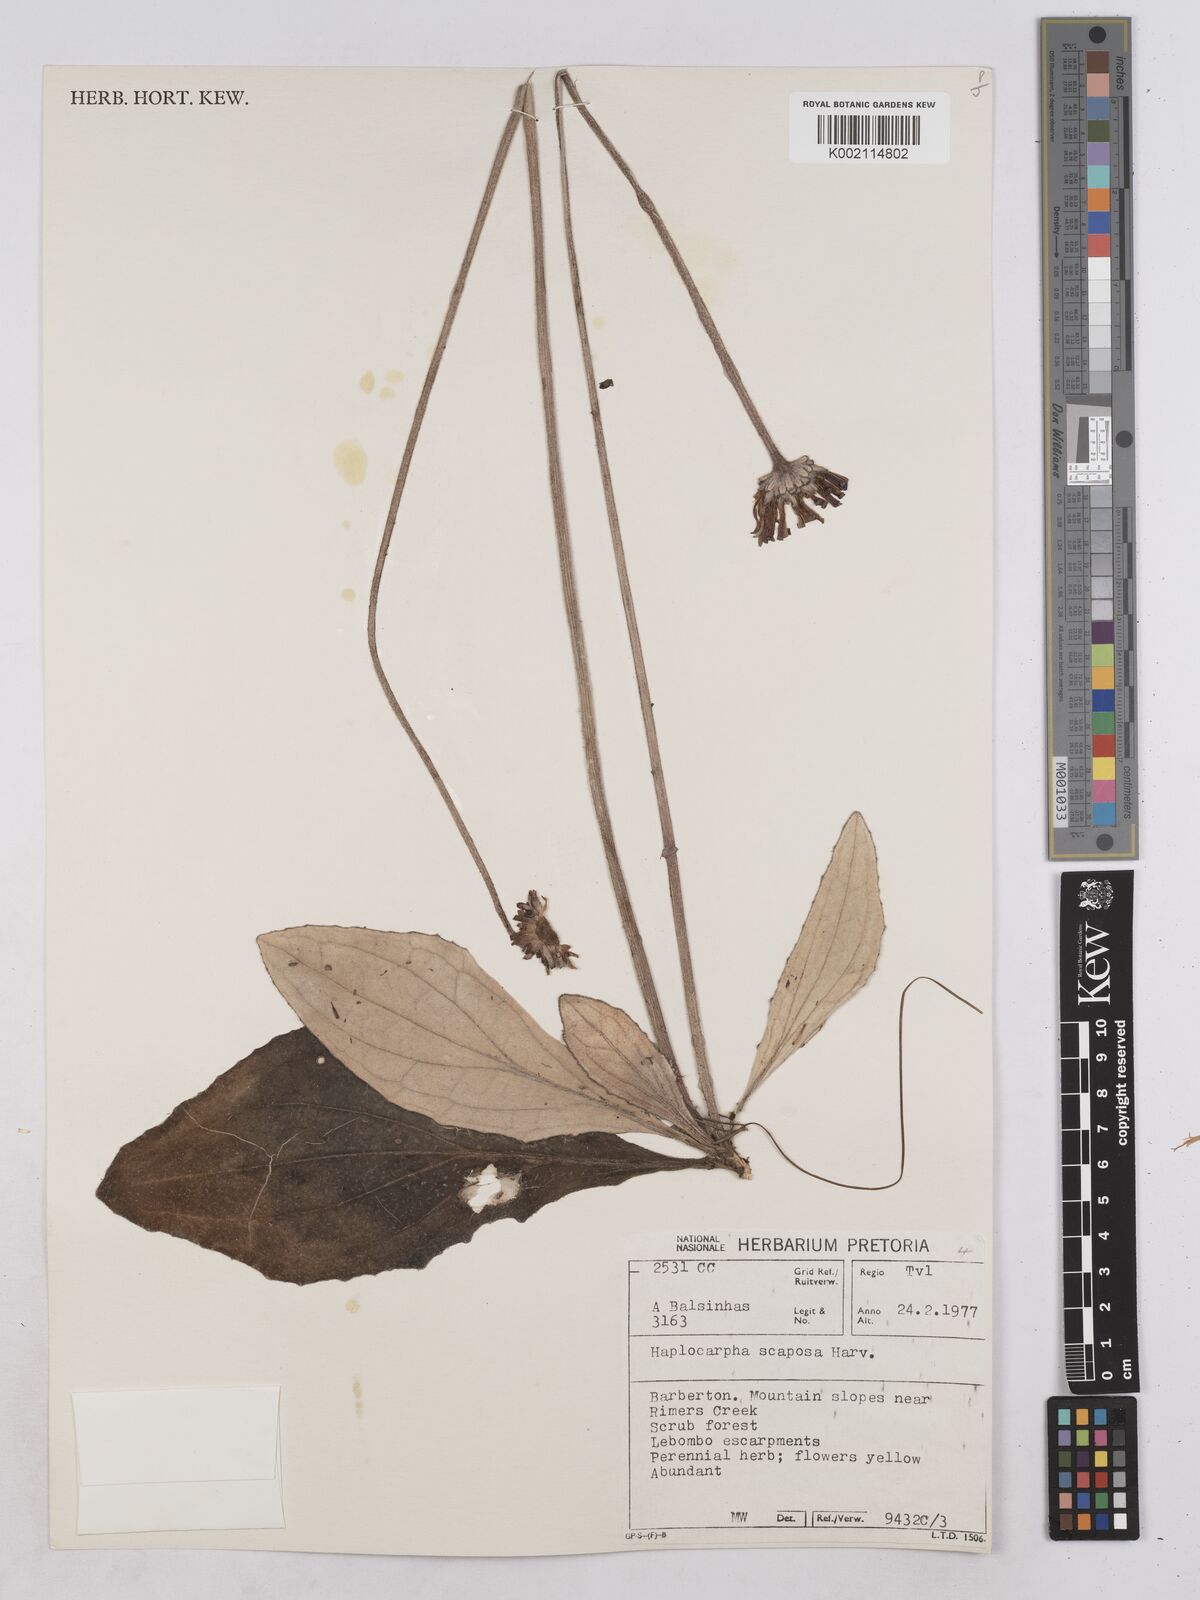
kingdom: Plantae
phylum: Tracheophyta
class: Magnoliopsida
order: Asterales
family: Asteraceae
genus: Haplocarpha
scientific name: Haplocarpha scaposa
